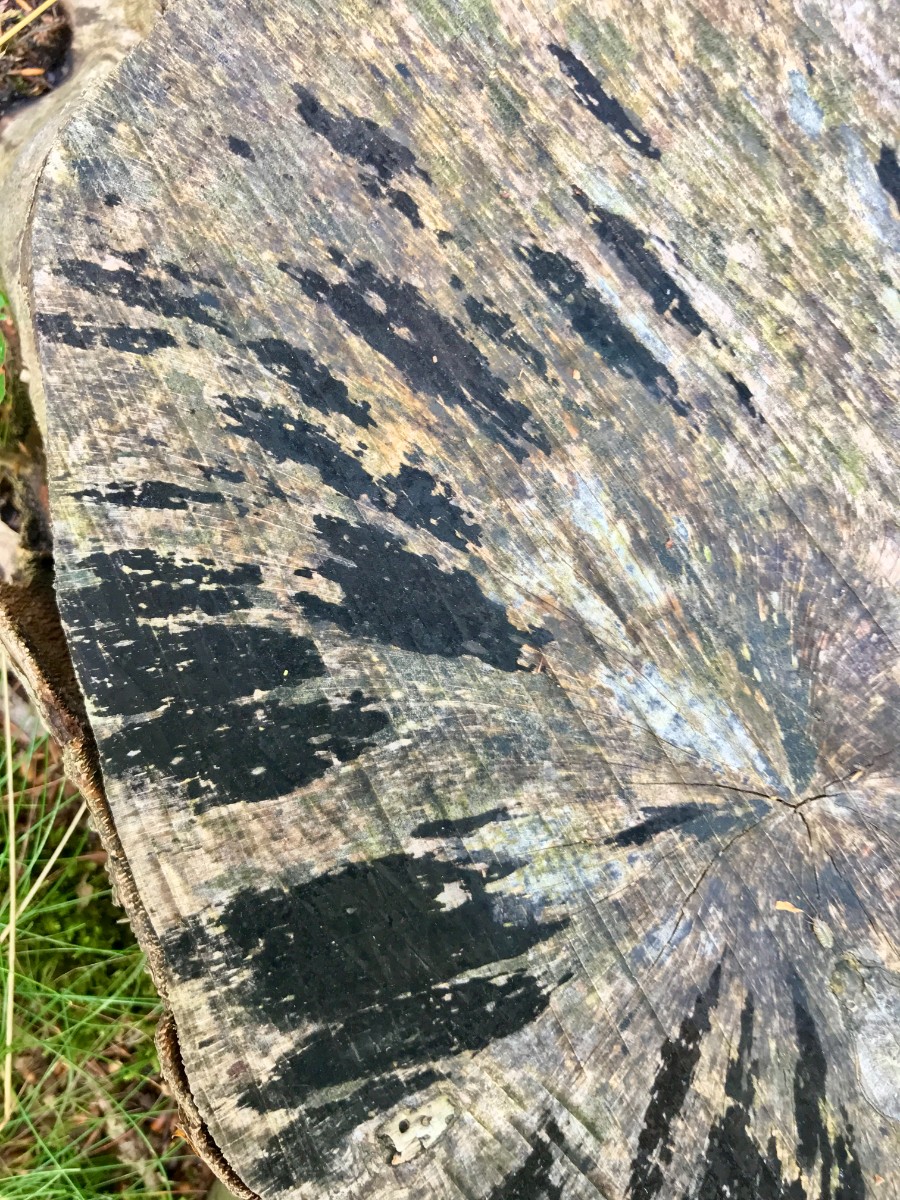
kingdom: Fungi
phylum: Ascomycota
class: Leotiomycetes
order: Helotiales
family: Helotiaceae
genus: Bispora
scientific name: Bispora pallescens
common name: måtte-snitskive
